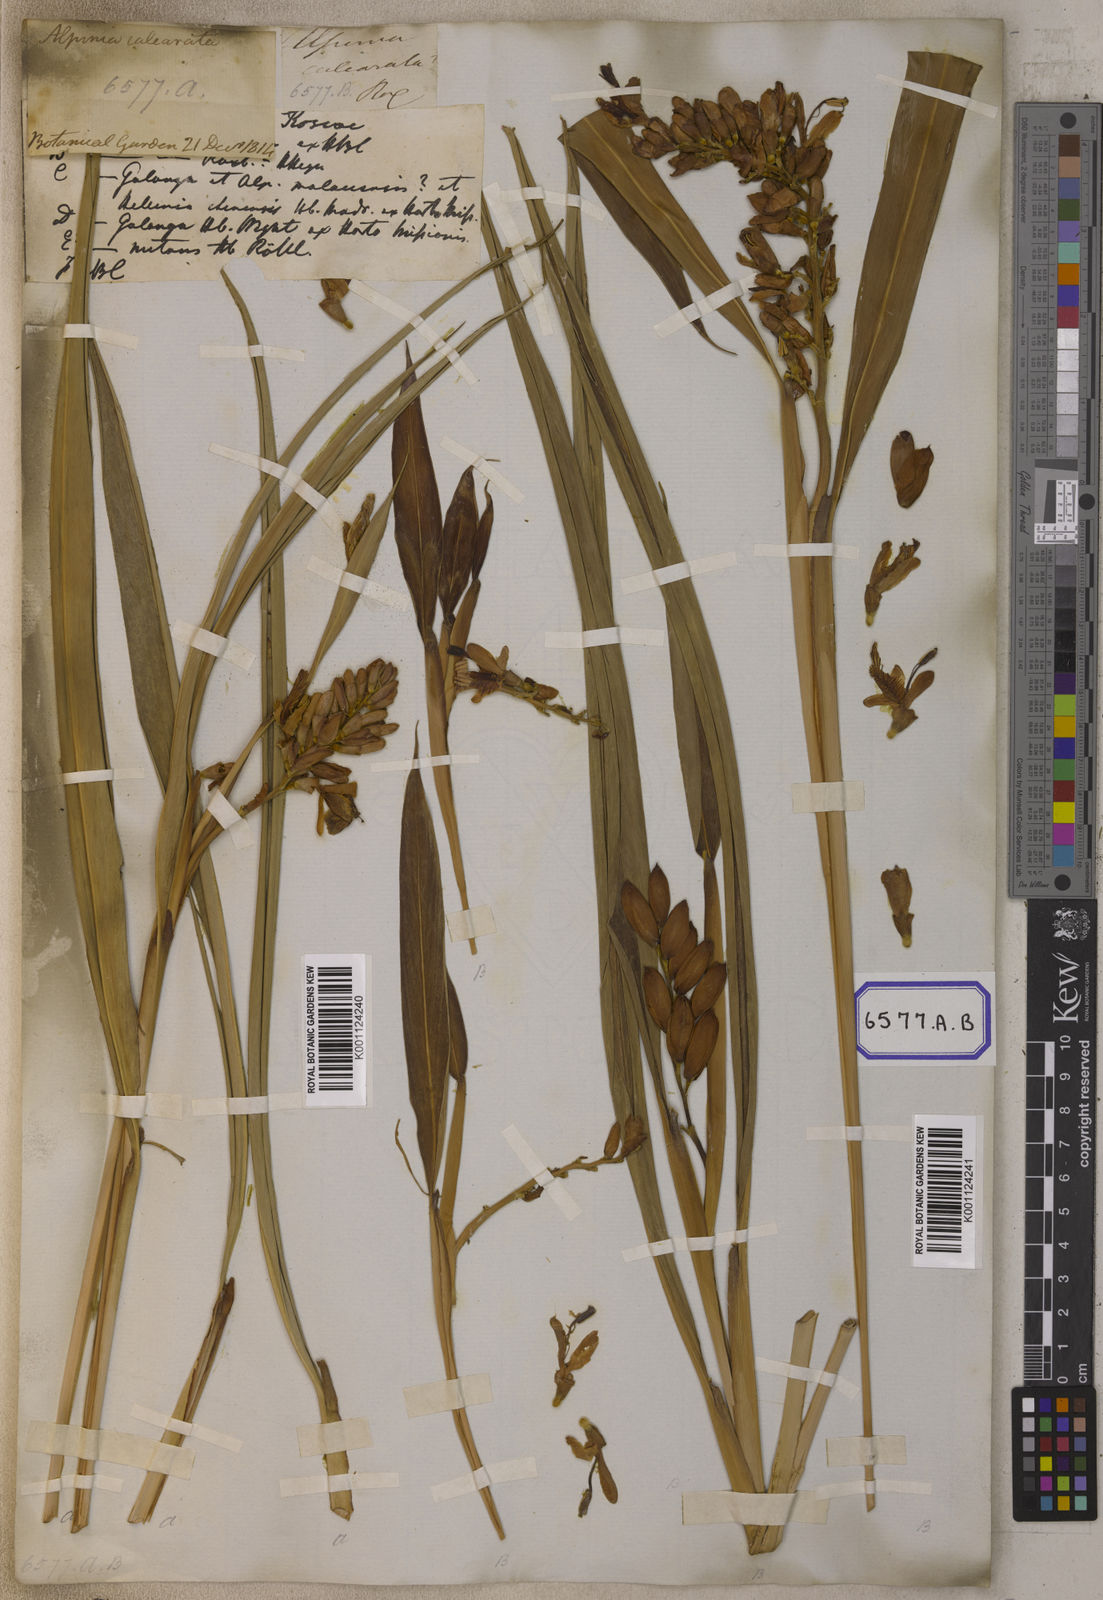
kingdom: Plantae
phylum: Tracheophyta
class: Liliopsida
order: Zingiberales
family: Zingiberaceae
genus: Alpinia
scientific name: Alpinia calcarata
